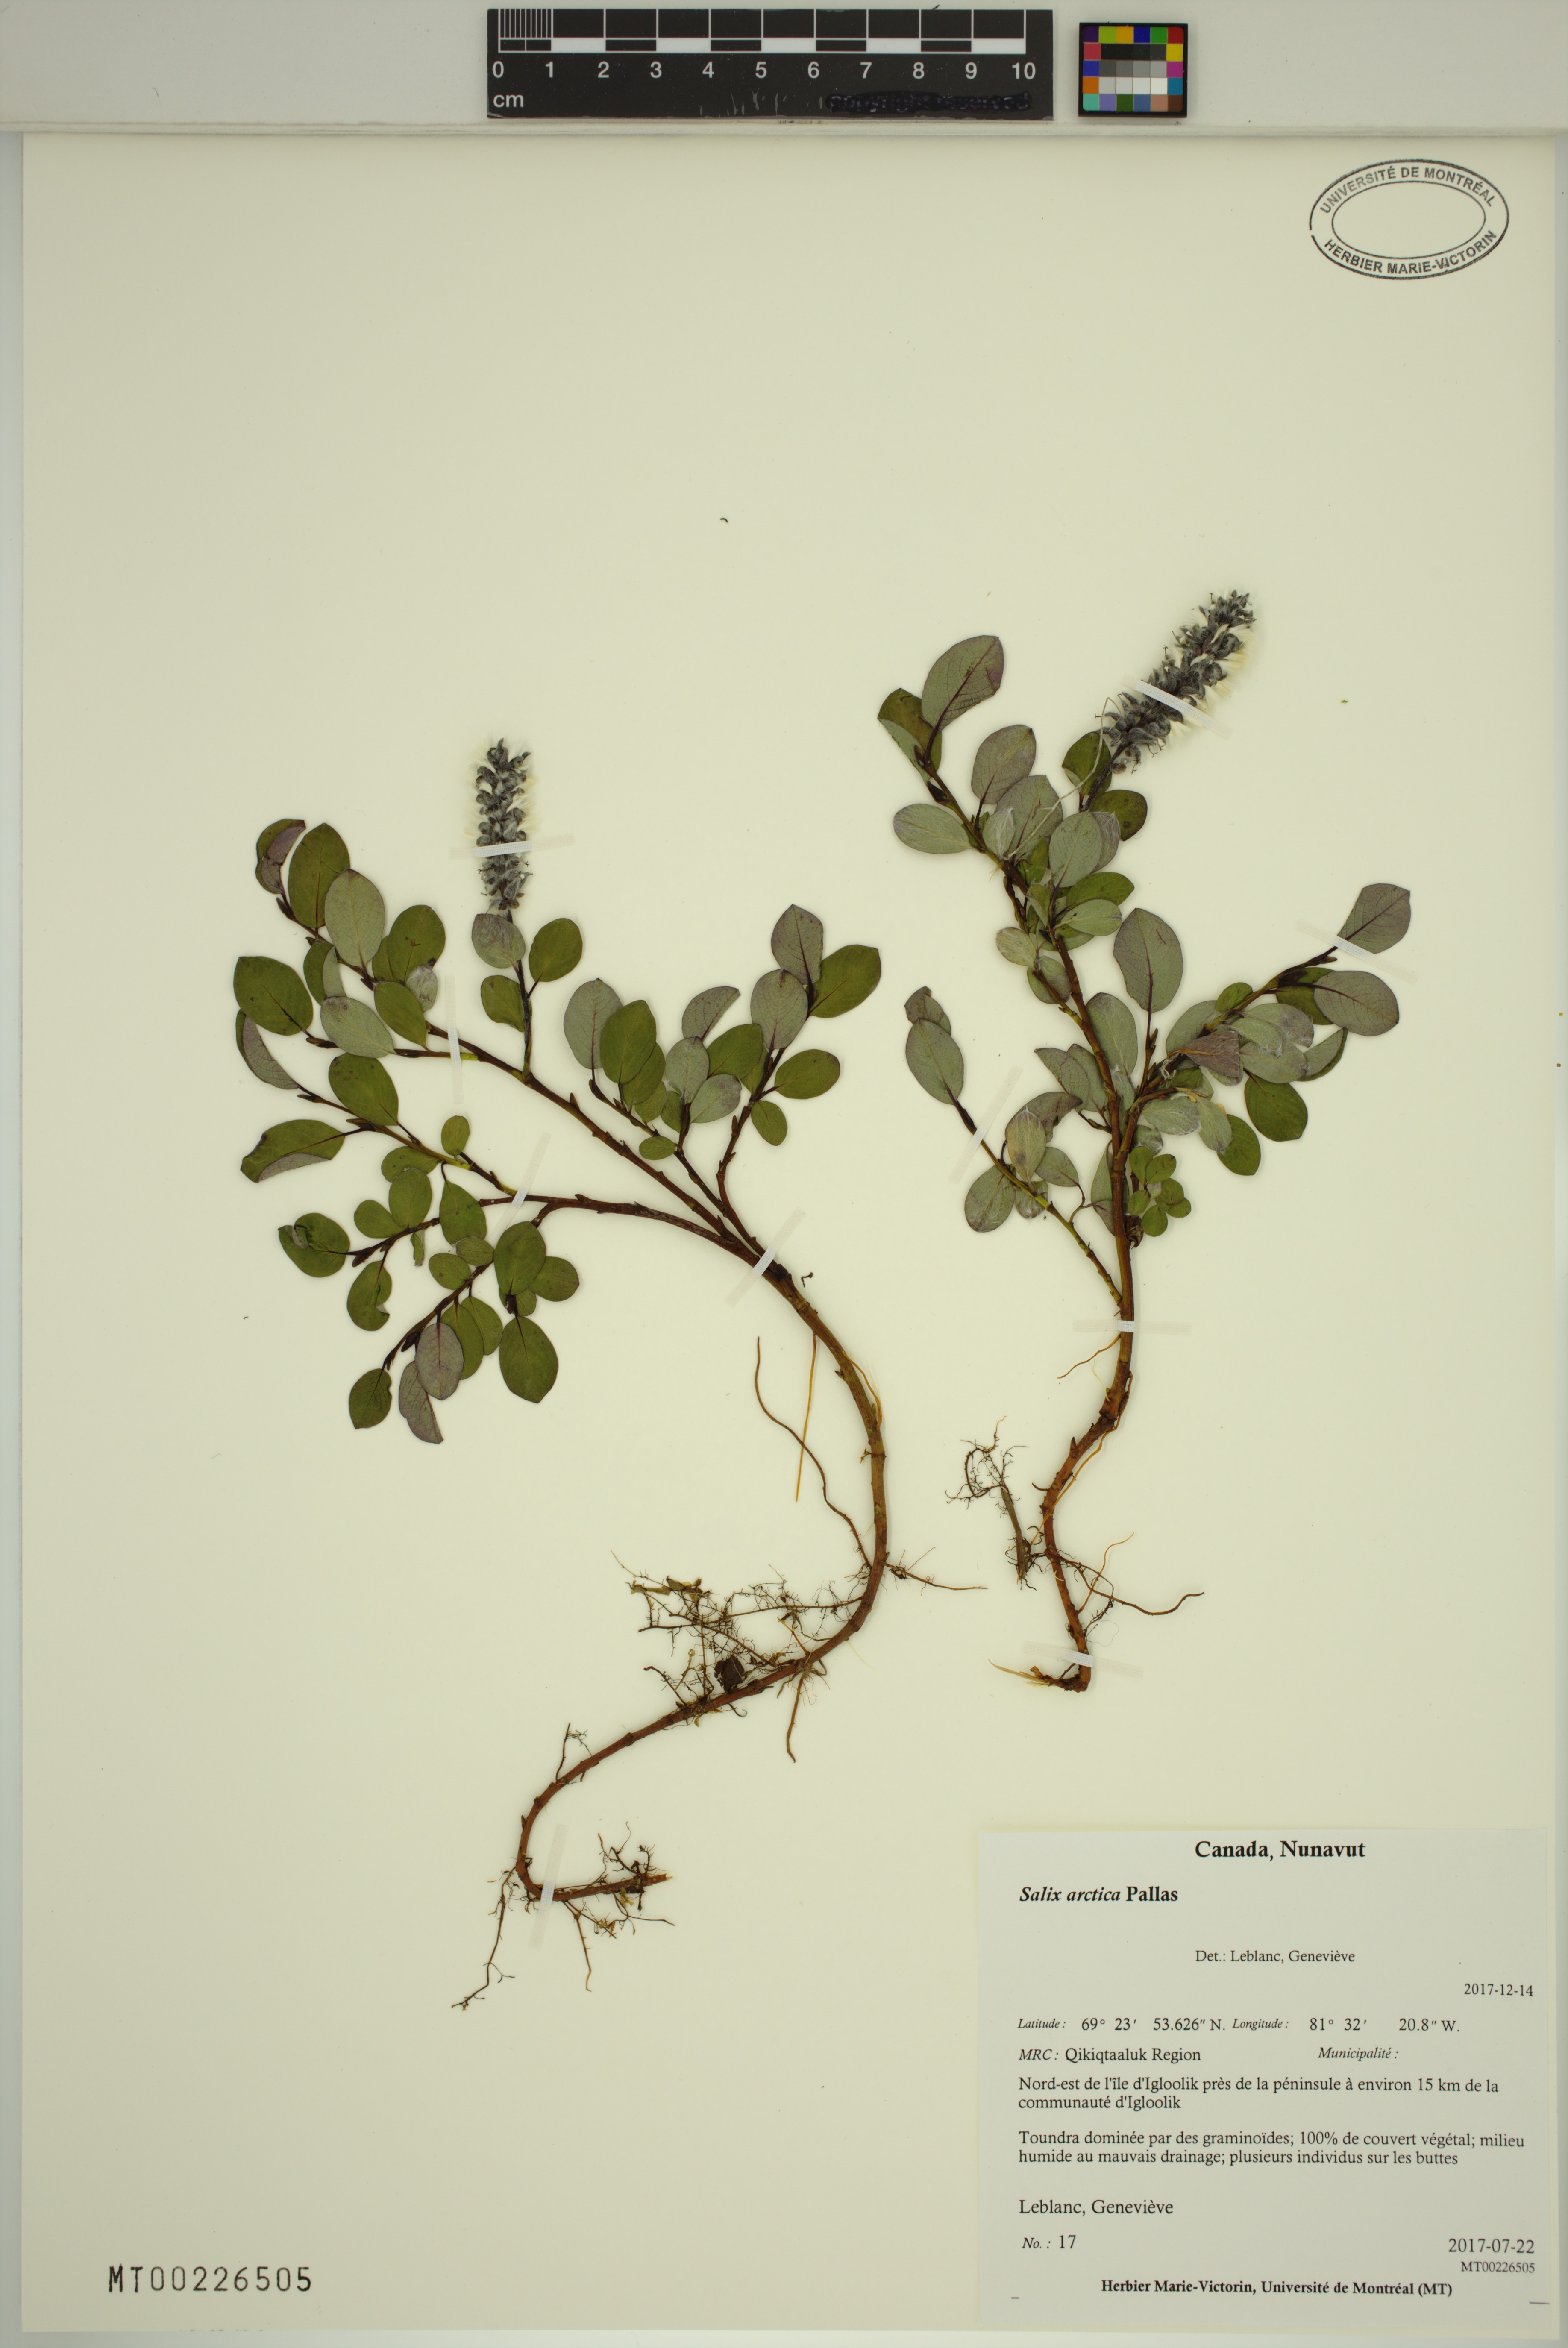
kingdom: Plantae
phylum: Tracheophyta
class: Magnoliopsida
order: Malpighiales
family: Salicaceae
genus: Salix
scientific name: Salix arctica
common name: Arctic willow
